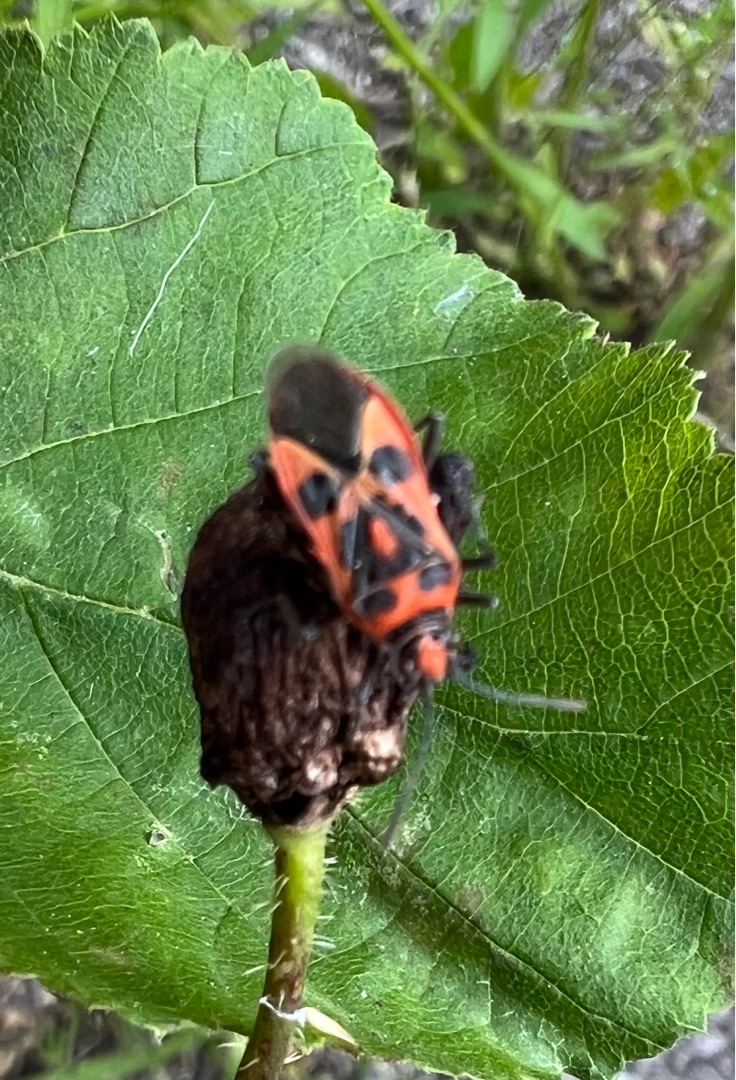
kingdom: Animalia
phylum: Arthropoda
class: Insecta
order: Hemiptera
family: Rhopalidae
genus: Corizus
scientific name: Corizus hyoscyami
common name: Rød kanttæge
